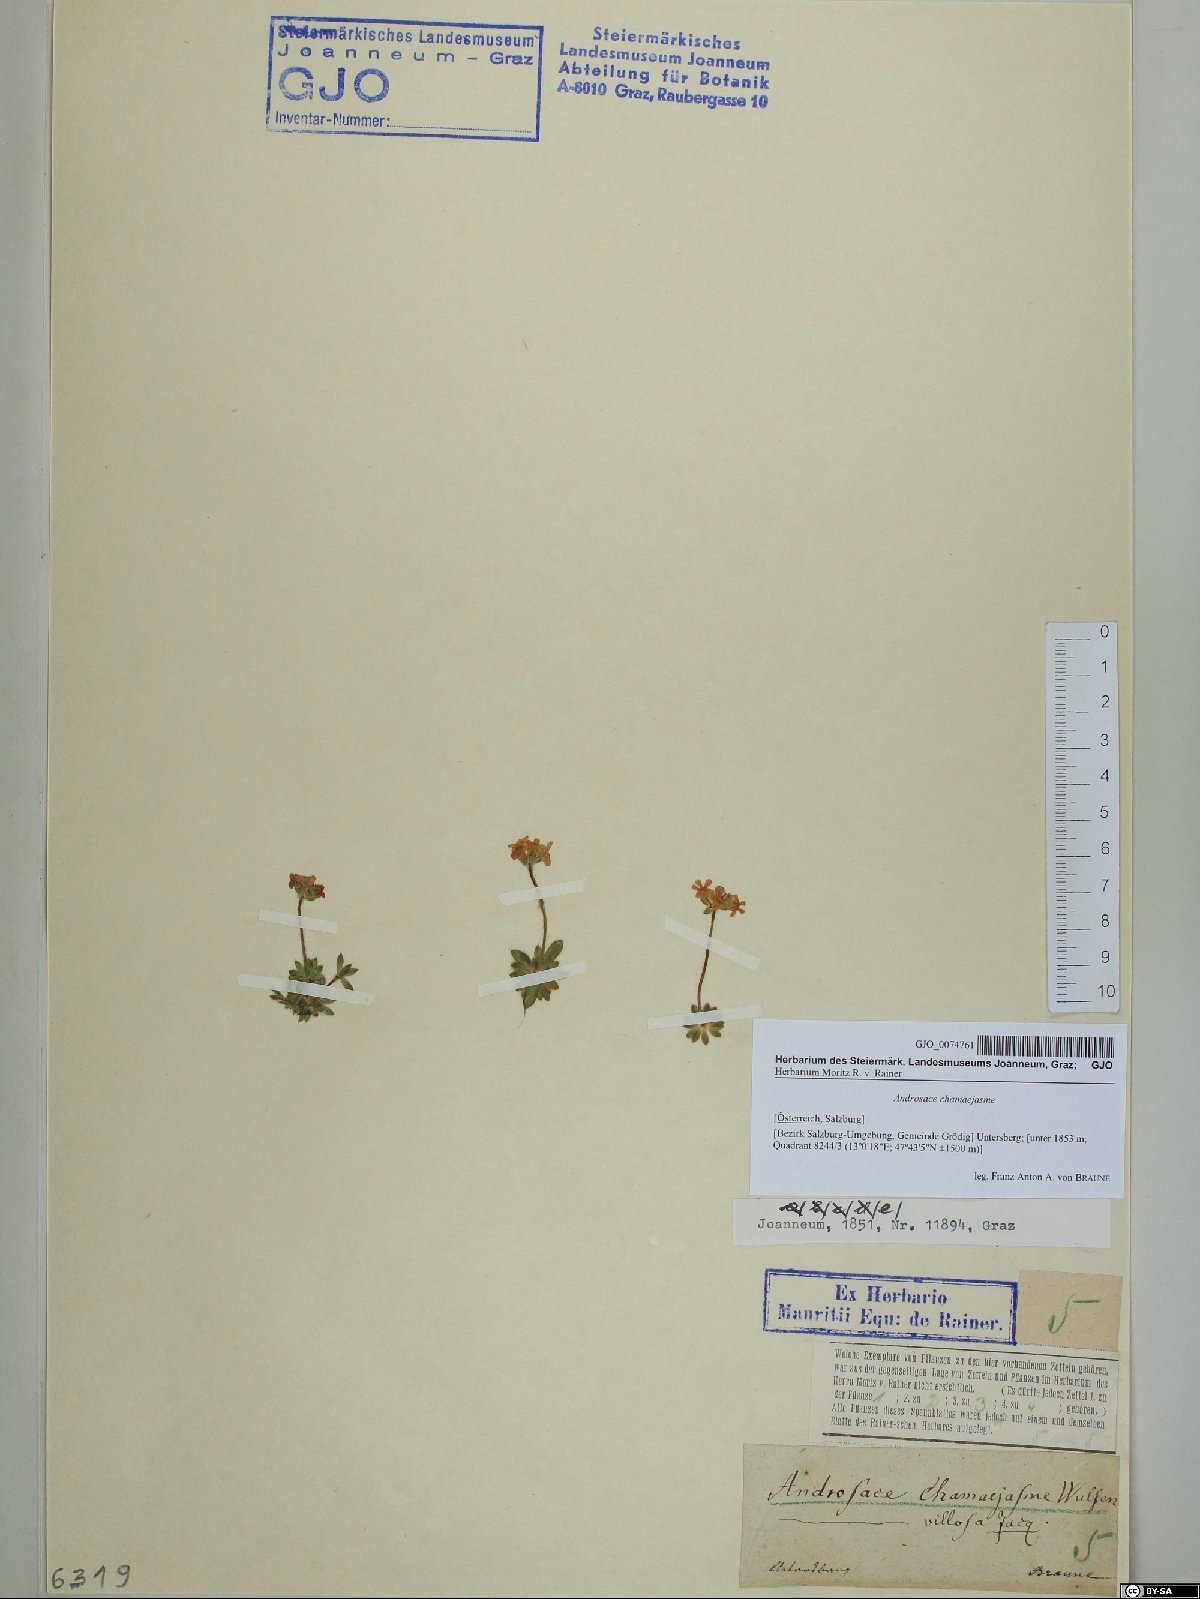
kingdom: Plantae
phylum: Tracheophyta
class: Magnoliopsida
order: Ericales
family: Primulaceae
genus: Androsace
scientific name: Androsace chamaejasme
